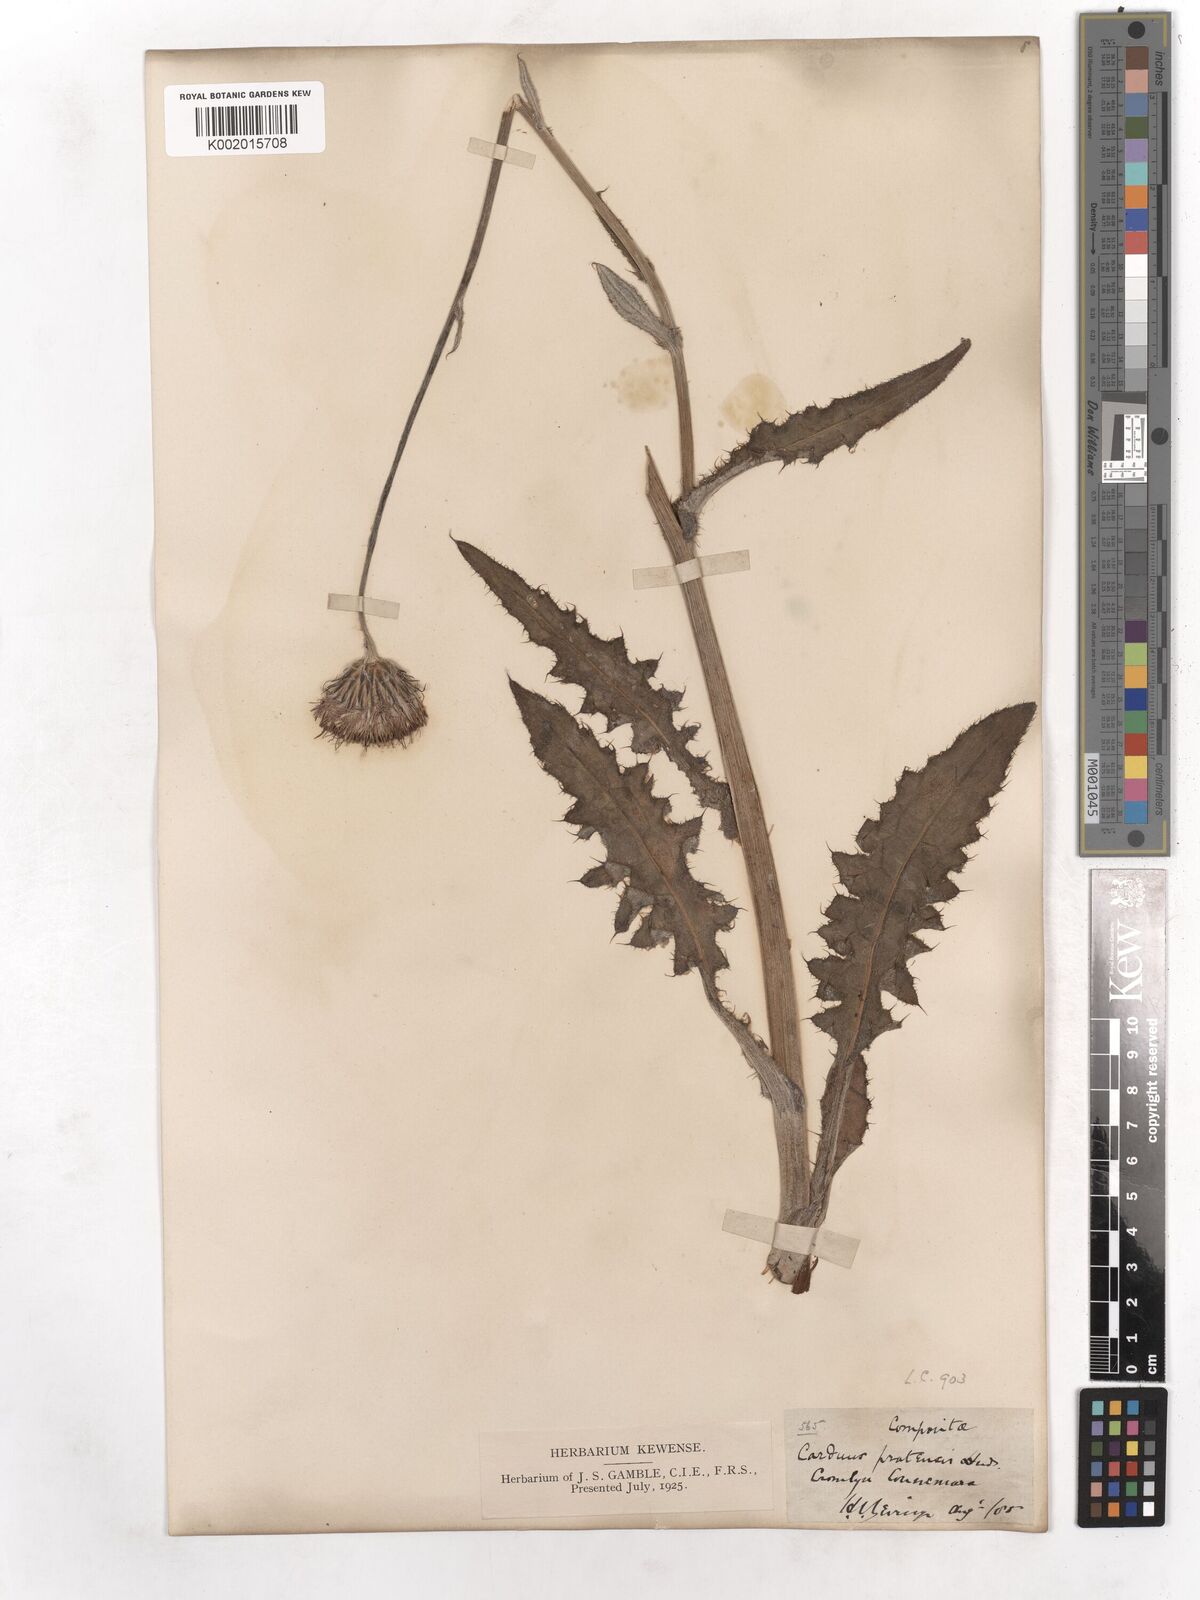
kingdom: Plantae
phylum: Tracheophyta
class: Magnoliopsida
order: Asterales
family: Asteraceae
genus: Cirsium
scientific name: Cirsium dissectum
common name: Meadow thistle
